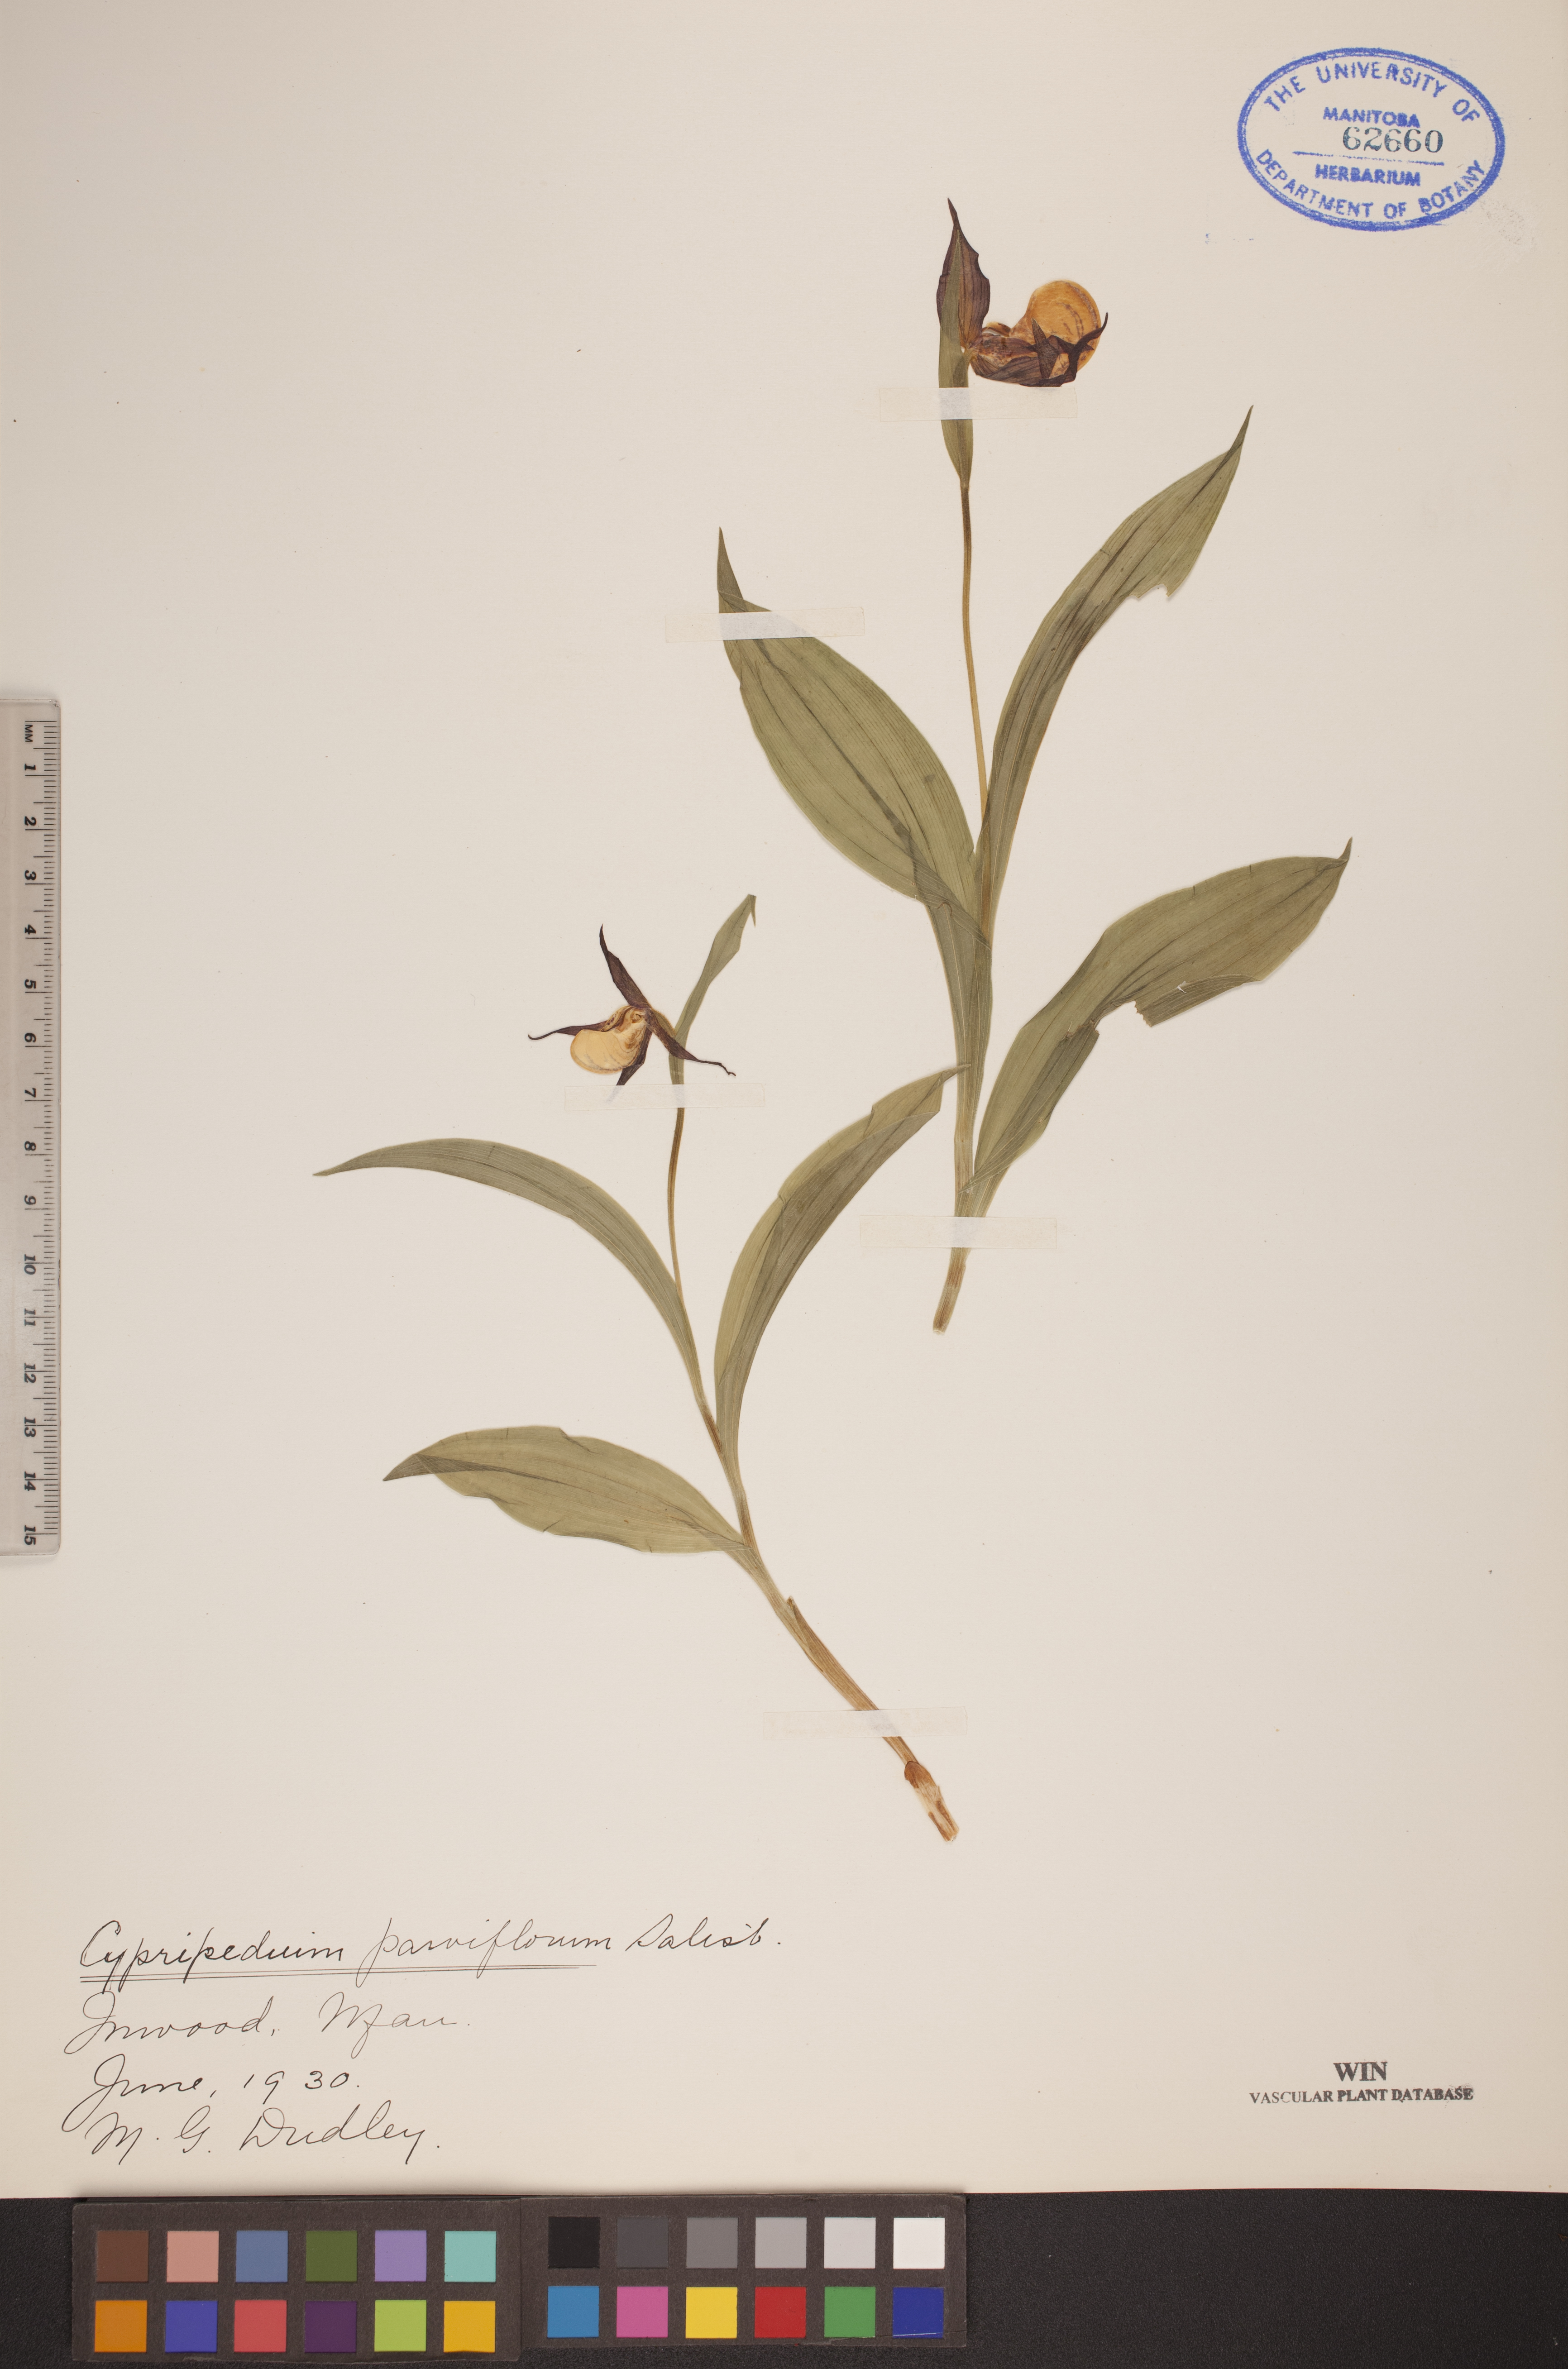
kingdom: Plantae
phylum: Tracheophyta
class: Liliopsida
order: Asparagales
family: Orchidaceae
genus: Cypripedium
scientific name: Cypripedium parviflorum
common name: American yellow lady's-slipper
